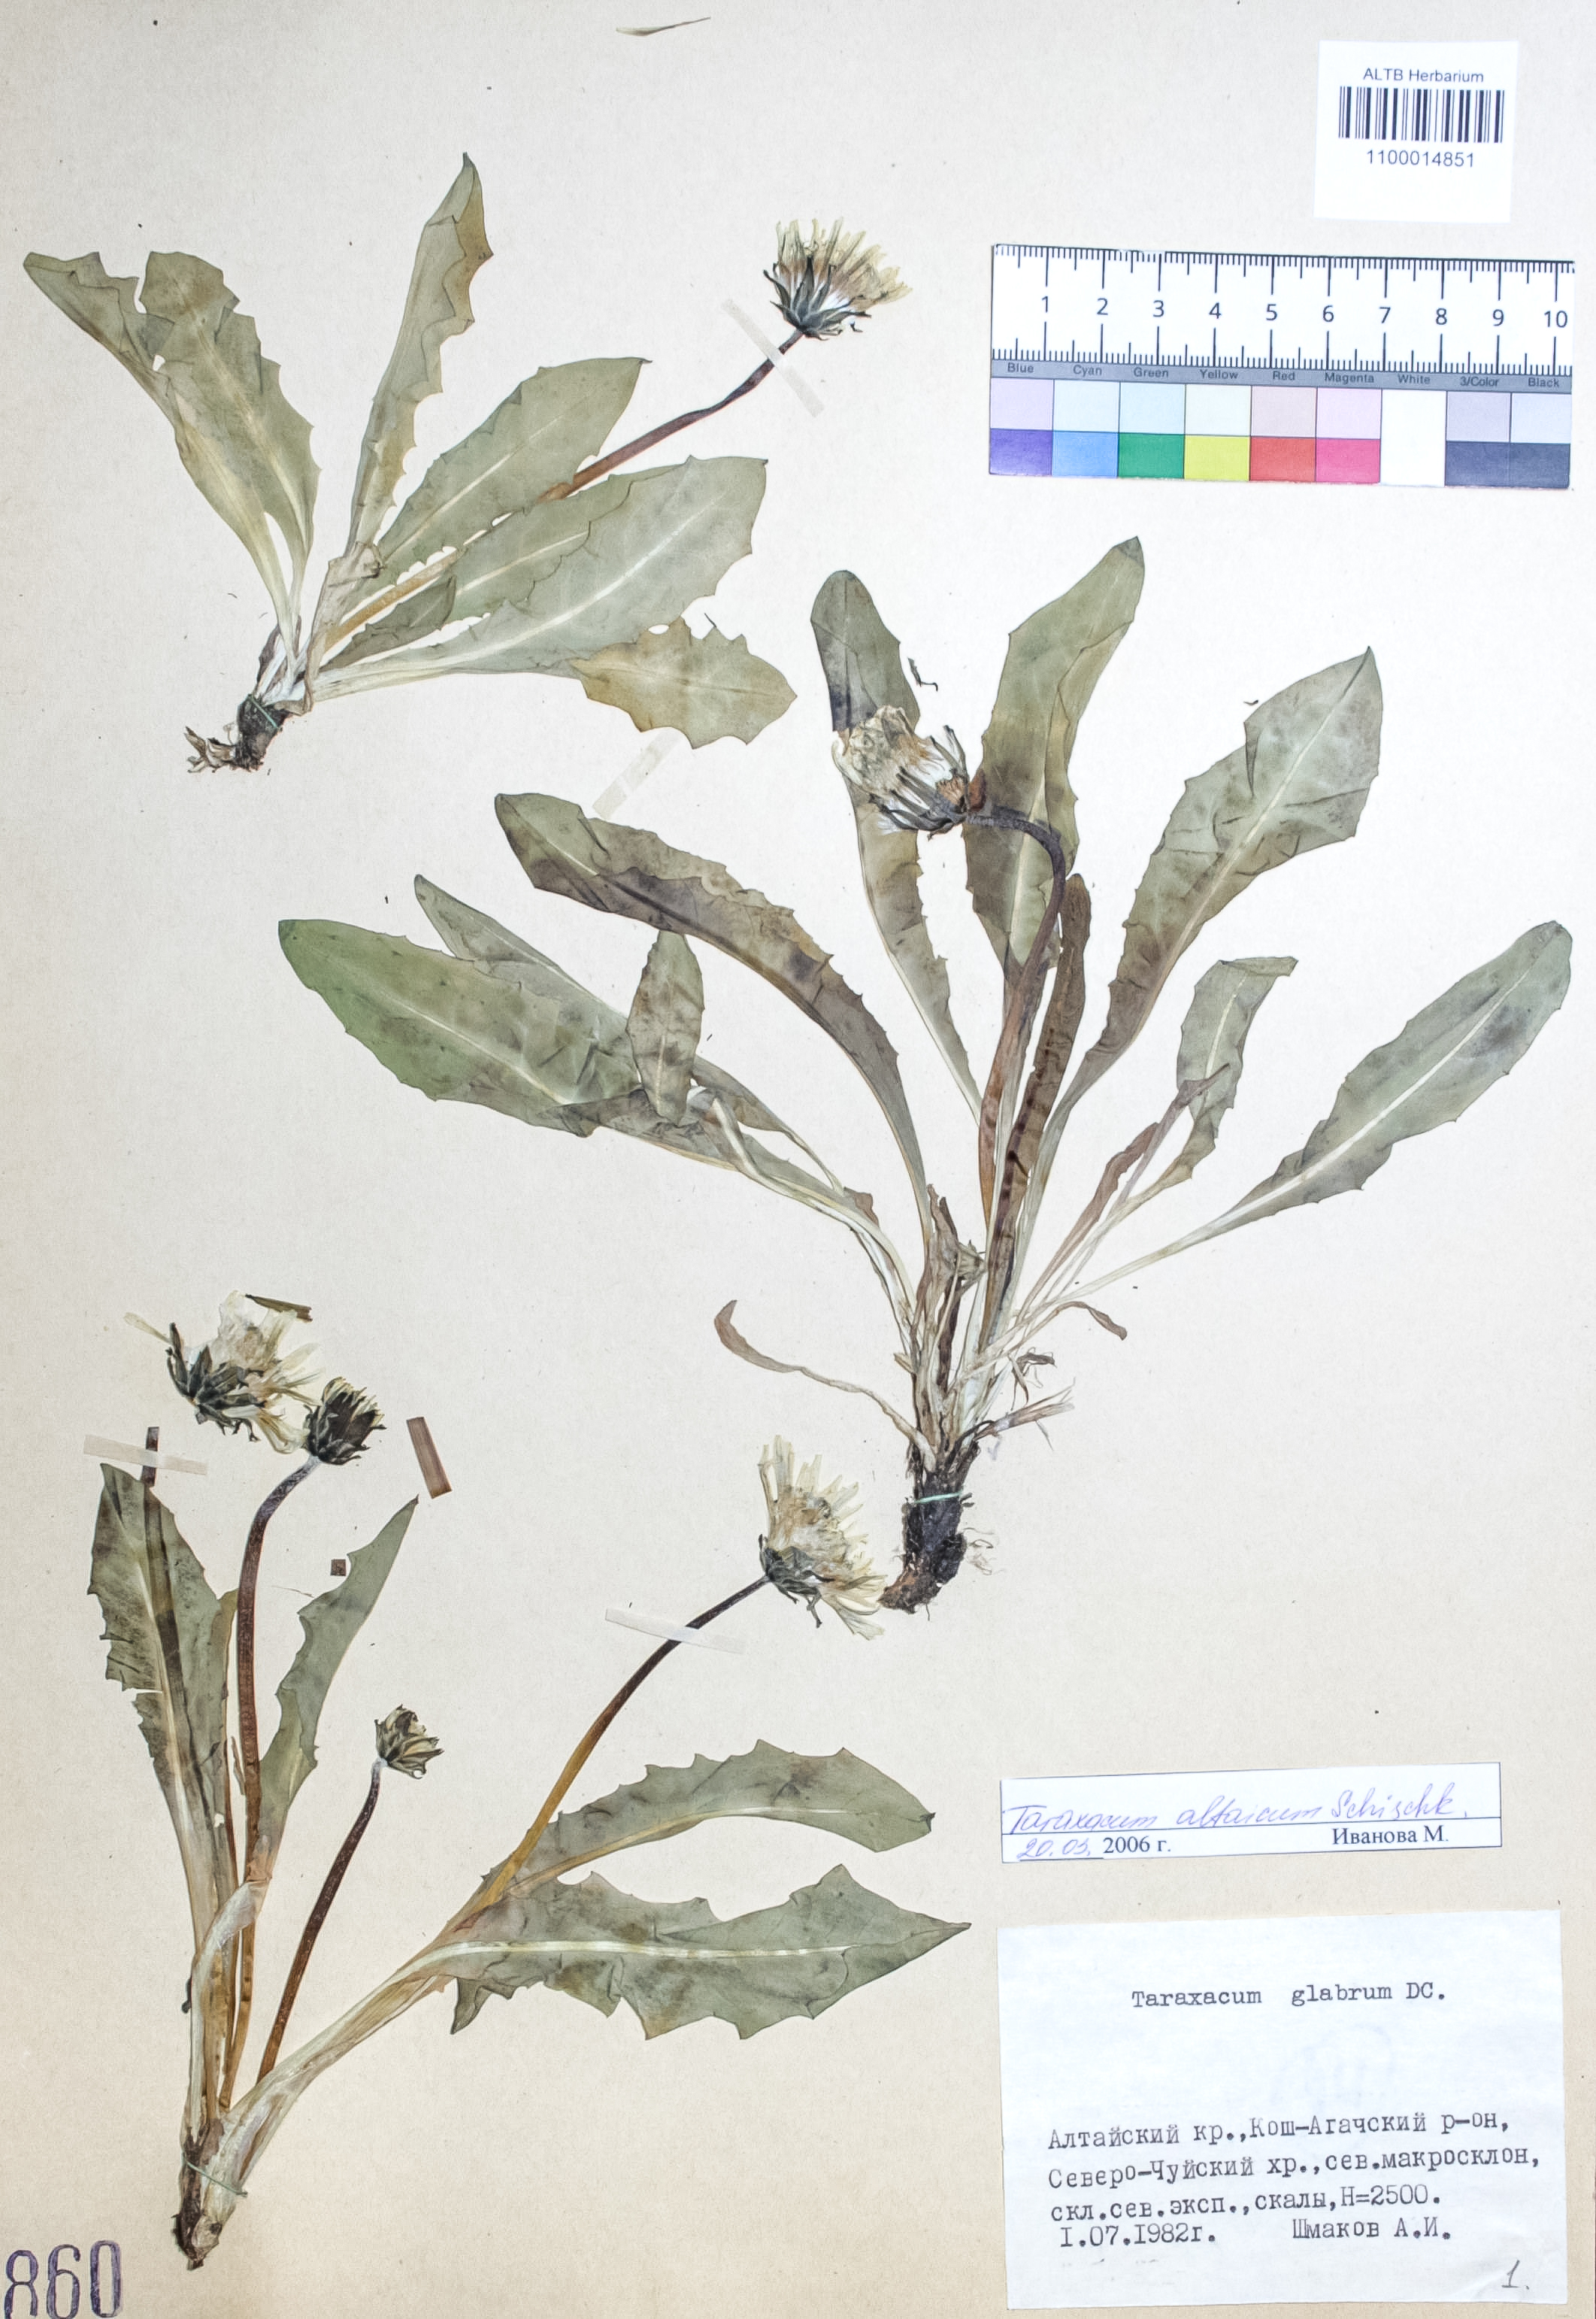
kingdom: Plantae
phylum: Tracheophyta
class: Magnoliopsida
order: Asterales
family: Asteraceae
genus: Taraxacum
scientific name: Taraxacum ceratophorum
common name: Horn-bearing dandelion
